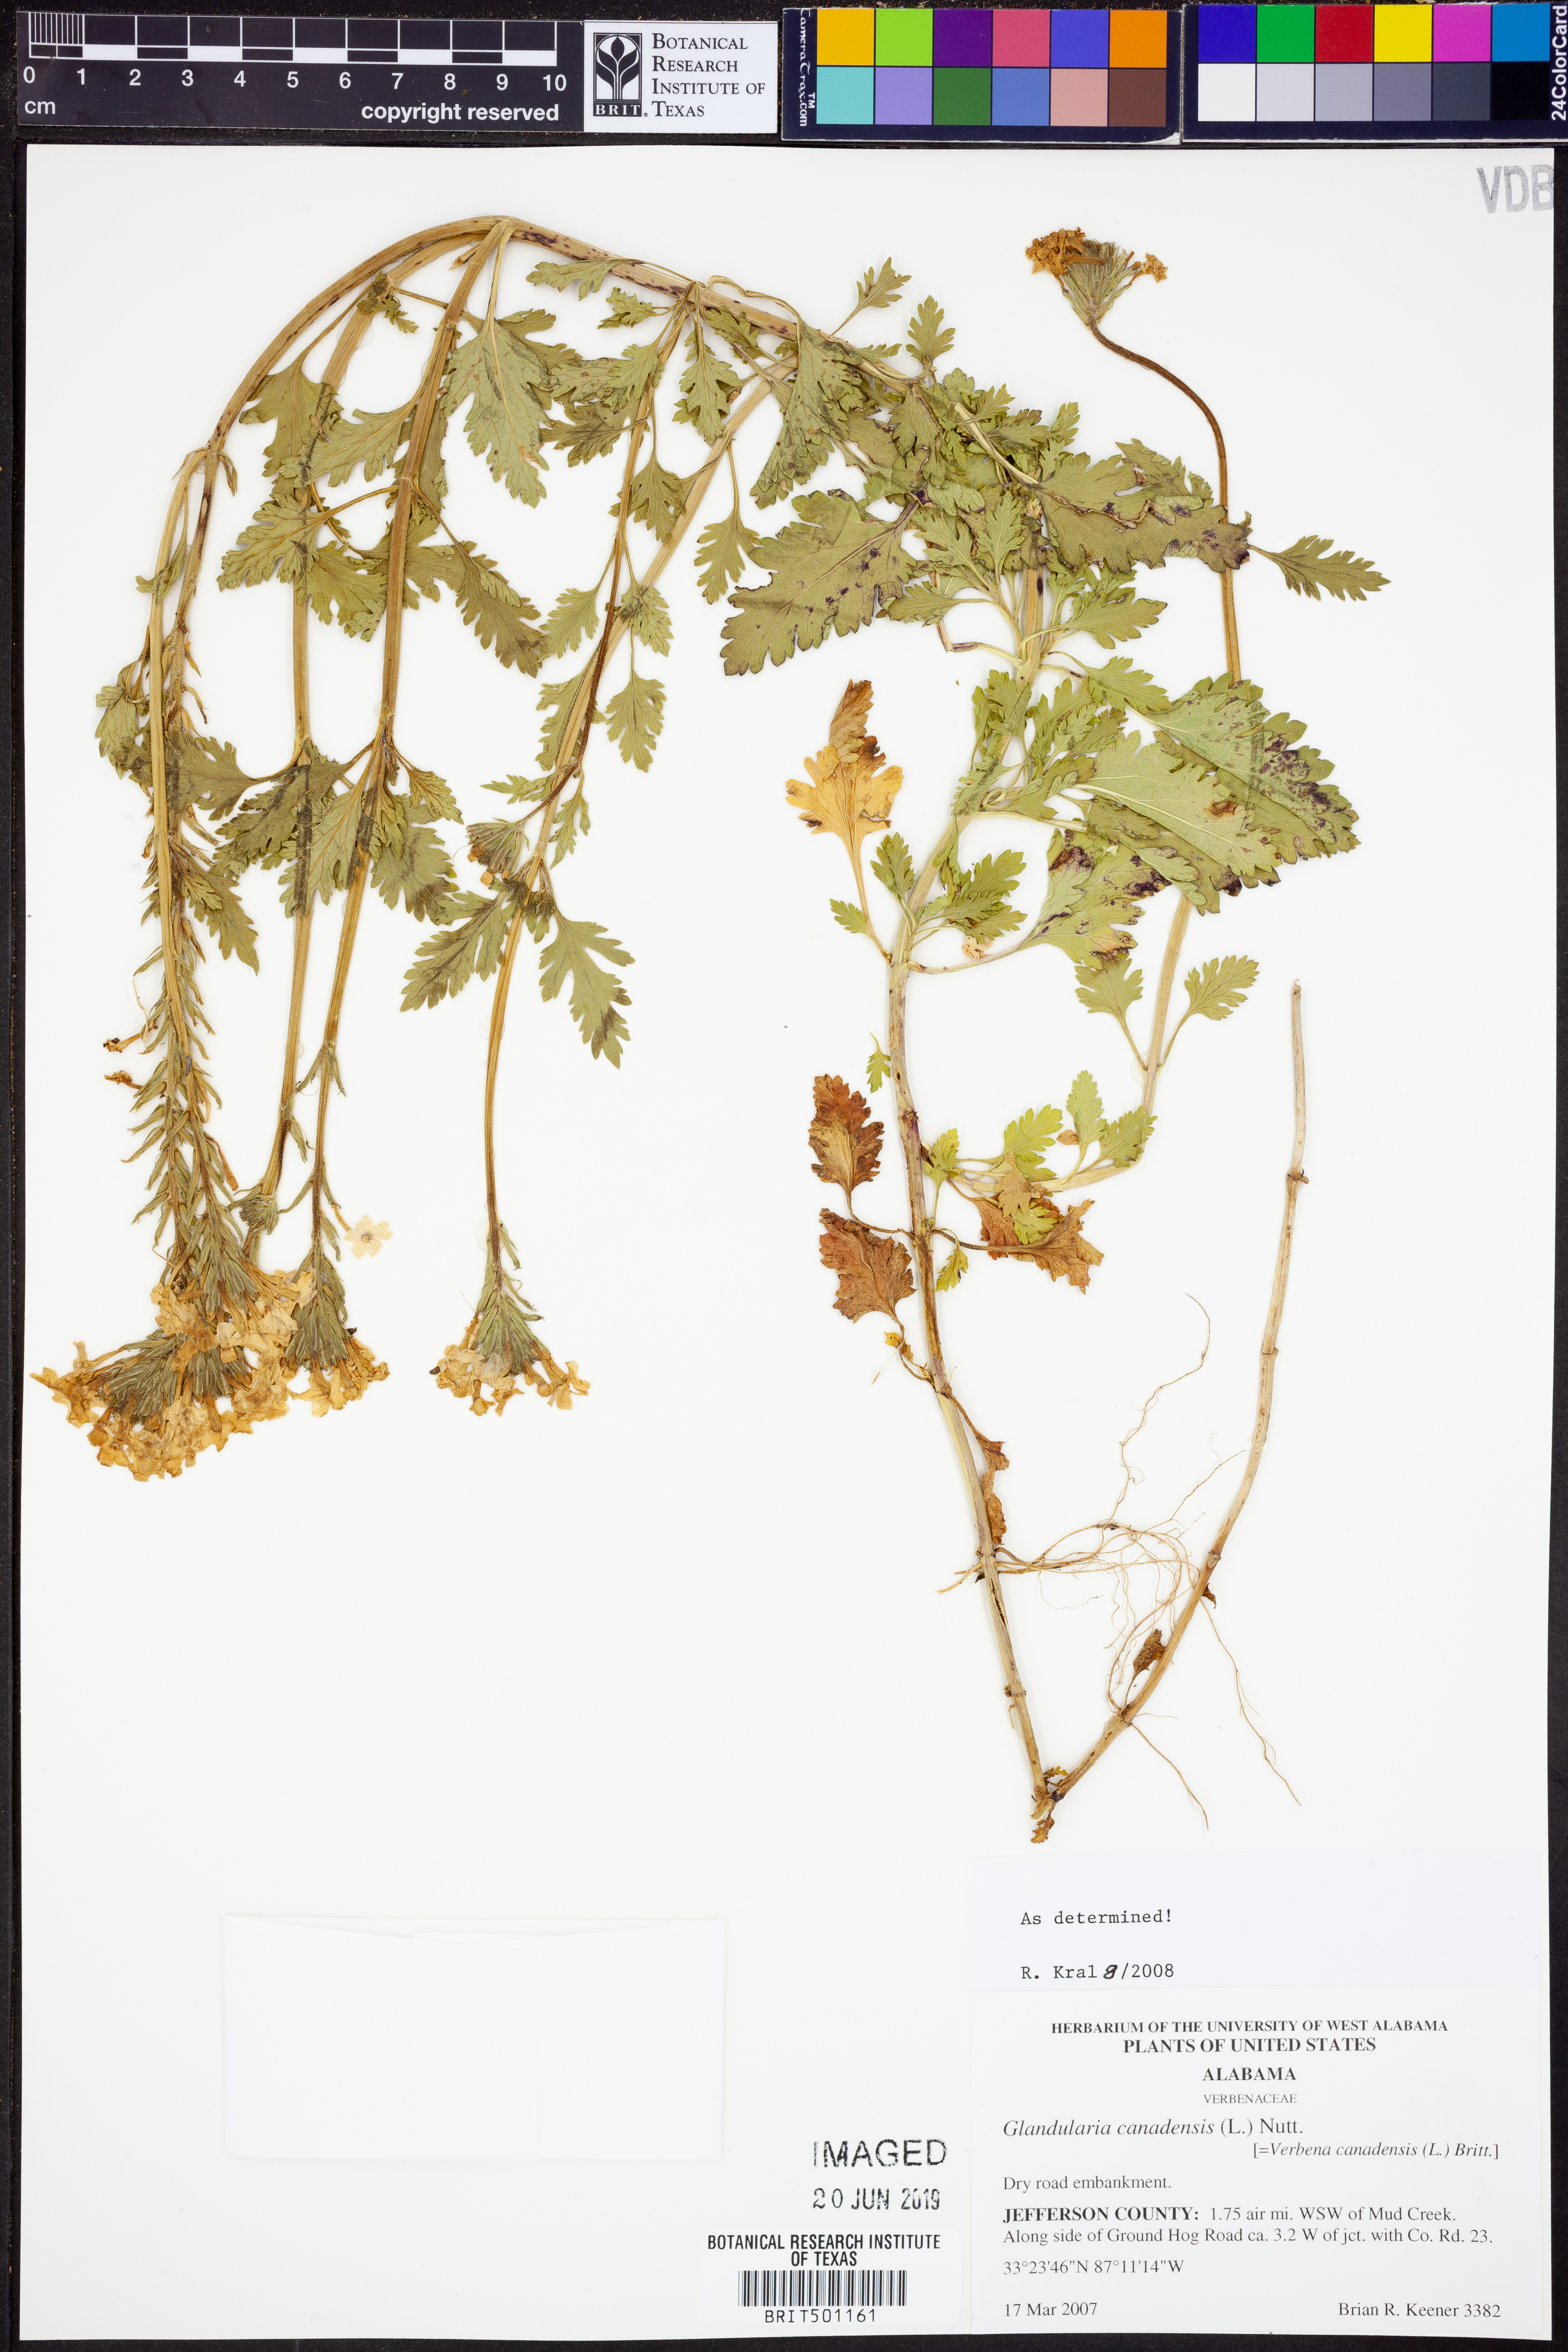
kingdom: Plantae
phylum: Tracheophyta
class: Magnoliopsida
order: Lamiales
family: Verbenaceae
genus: Verbena
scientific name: Verbena canadensis
